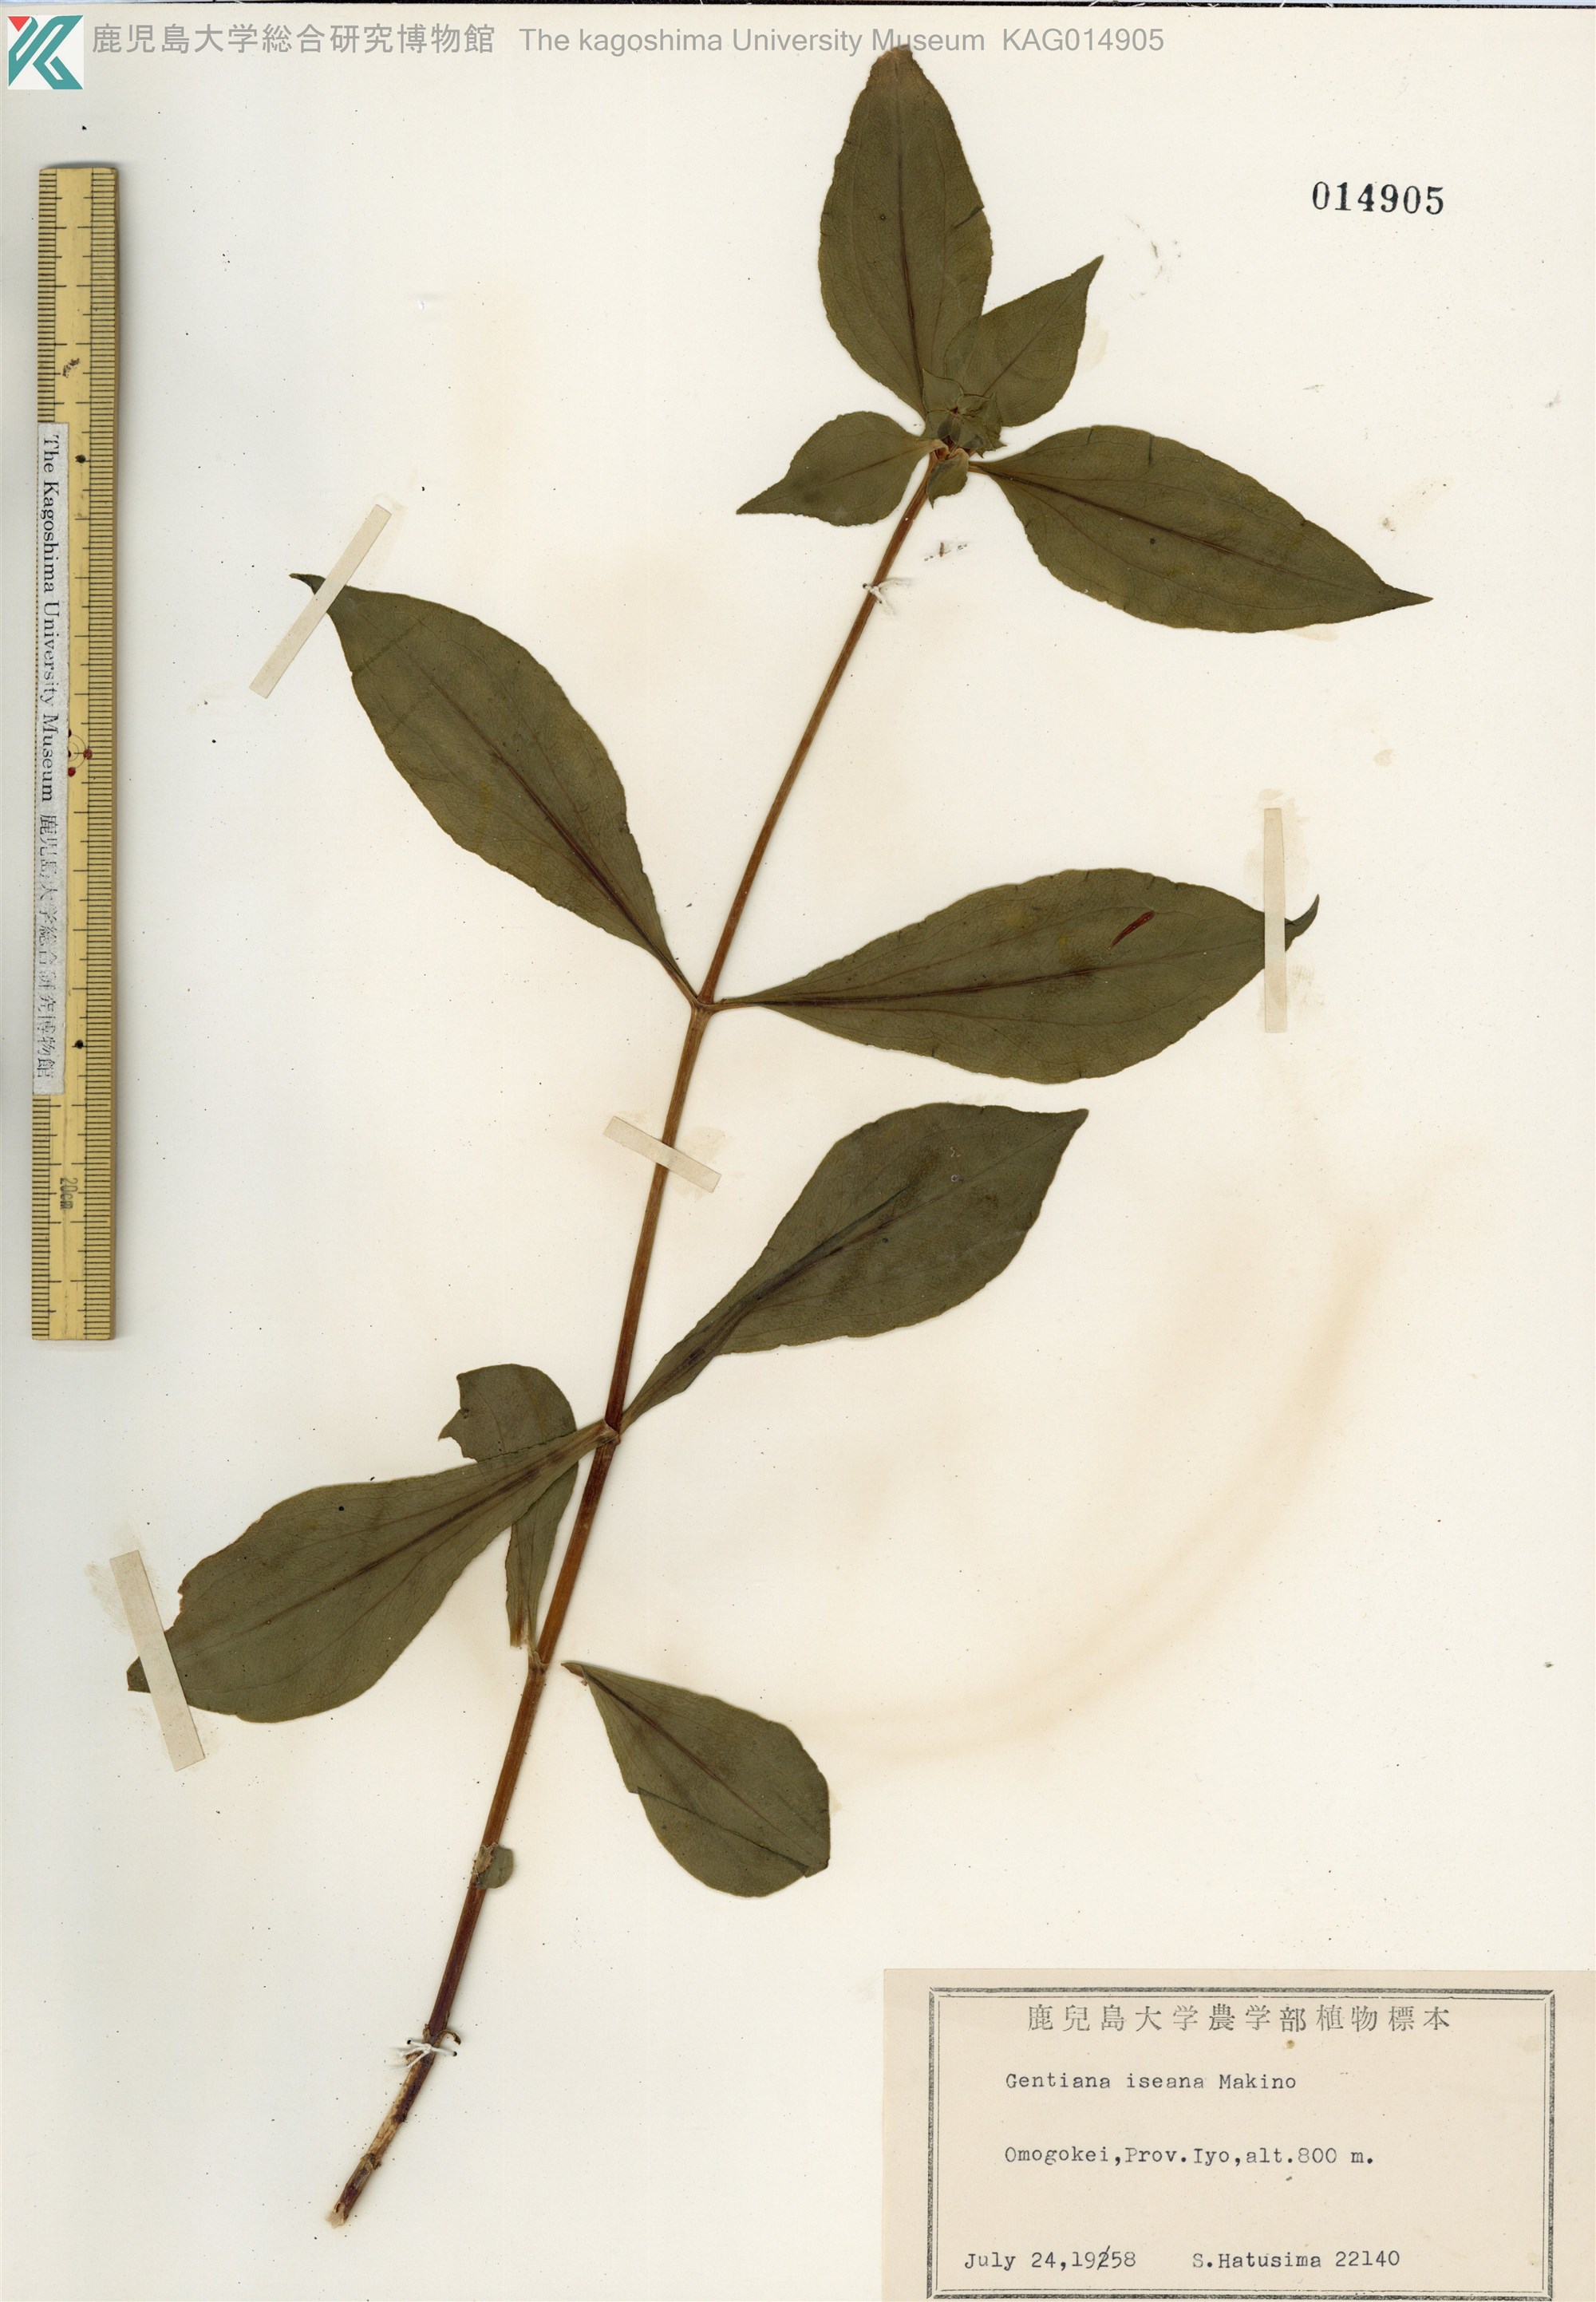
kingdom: Plantae
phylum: Tracheophyta
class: Magnoliopsida
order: Gentianales
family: Gentianaceae
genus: Gentiana
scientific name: Gentiana sikokiana
